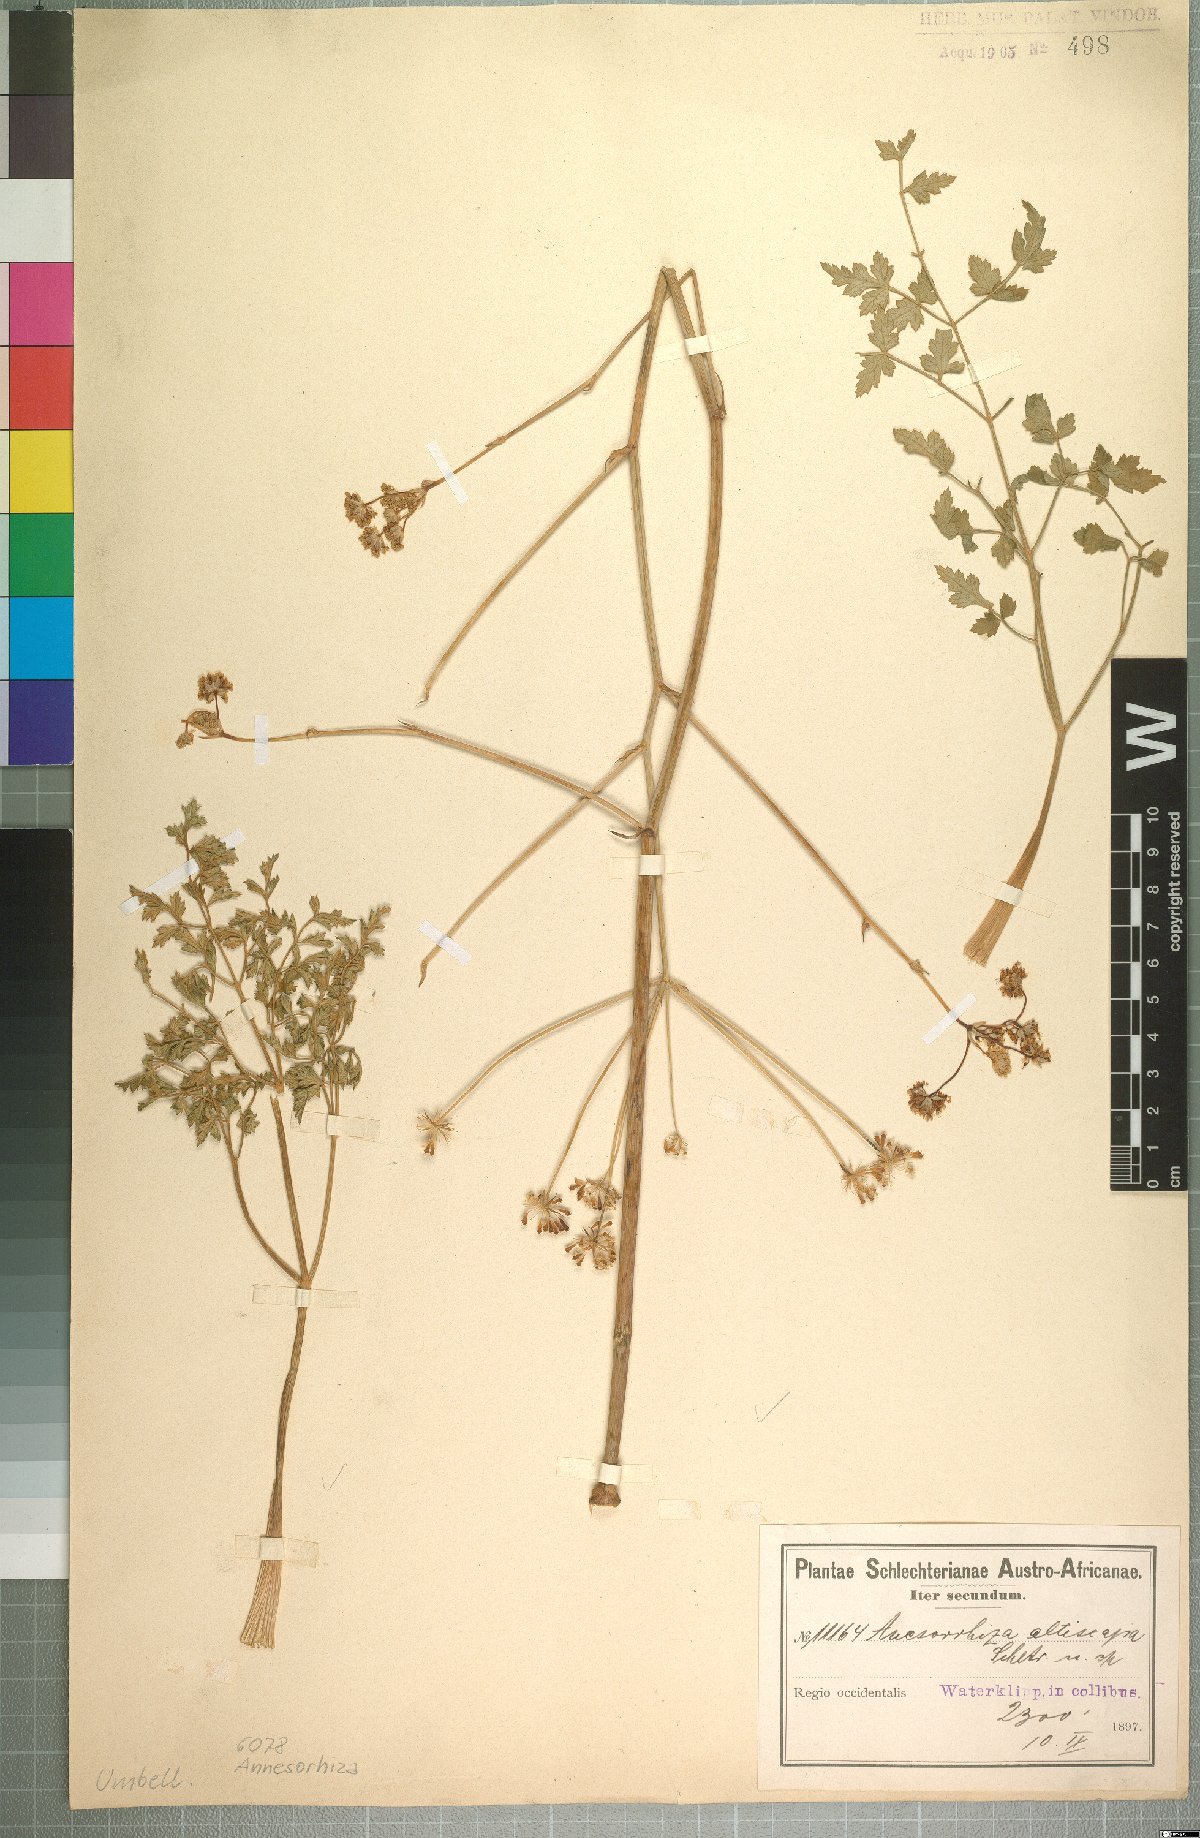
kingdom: Plantae
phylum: Tracheophyta
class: Magnoliopsida
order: Apiales
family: Apiaceae
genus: Annesorhiza
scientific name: Annesorhiza altiscapa
